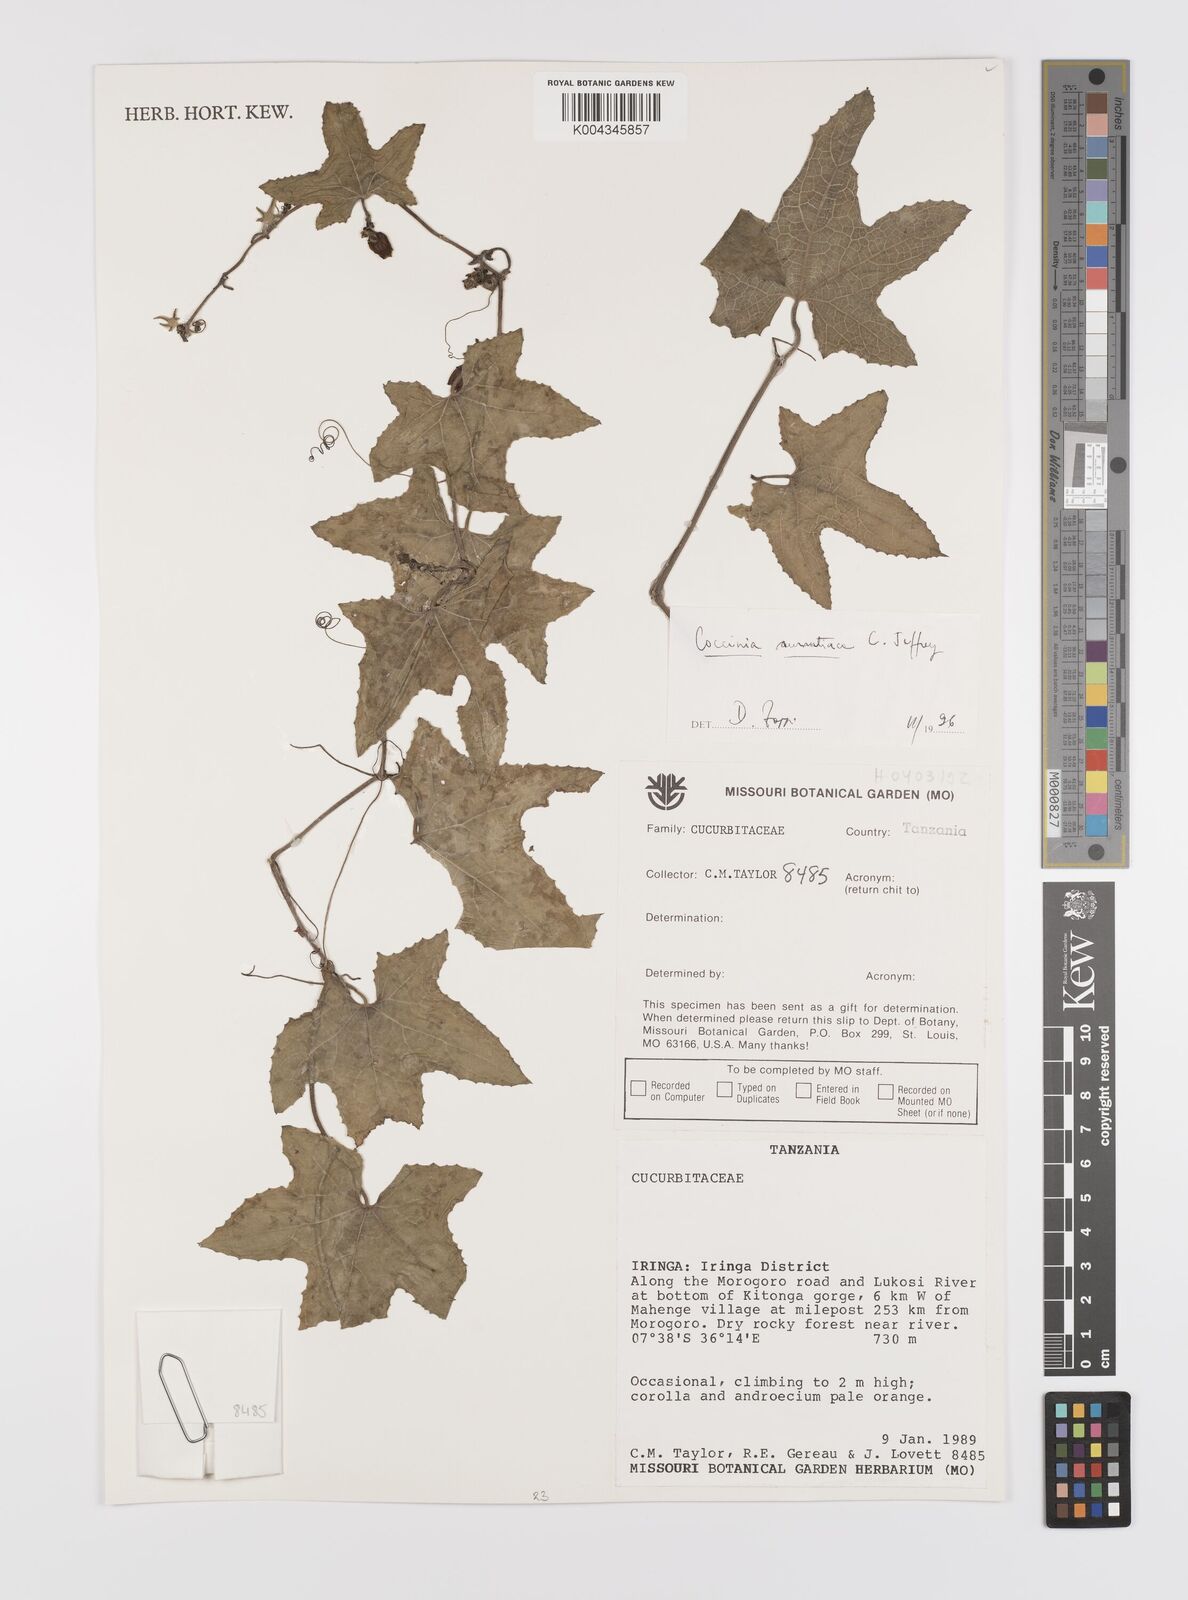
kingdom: Plantae
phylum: Tracheophyta
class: Magnoliopsida
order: Cucurbitales
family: Cucurbitaceae
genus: Coccinia
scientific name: Coccinia adoensis
